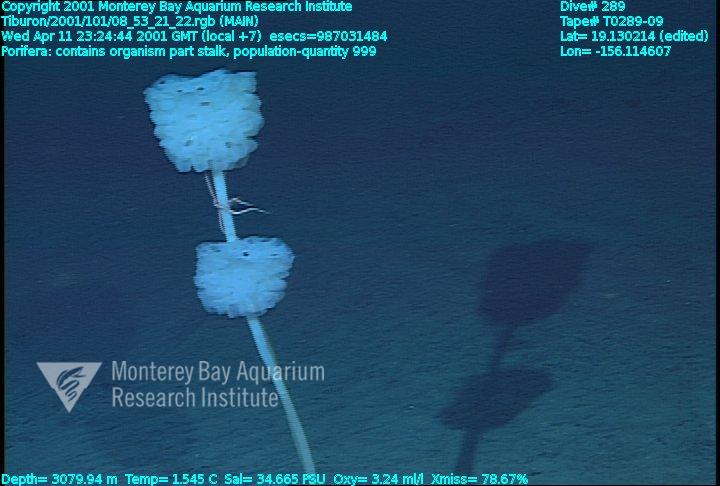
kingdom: Animalia
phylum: Porifera
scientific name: Porifera
